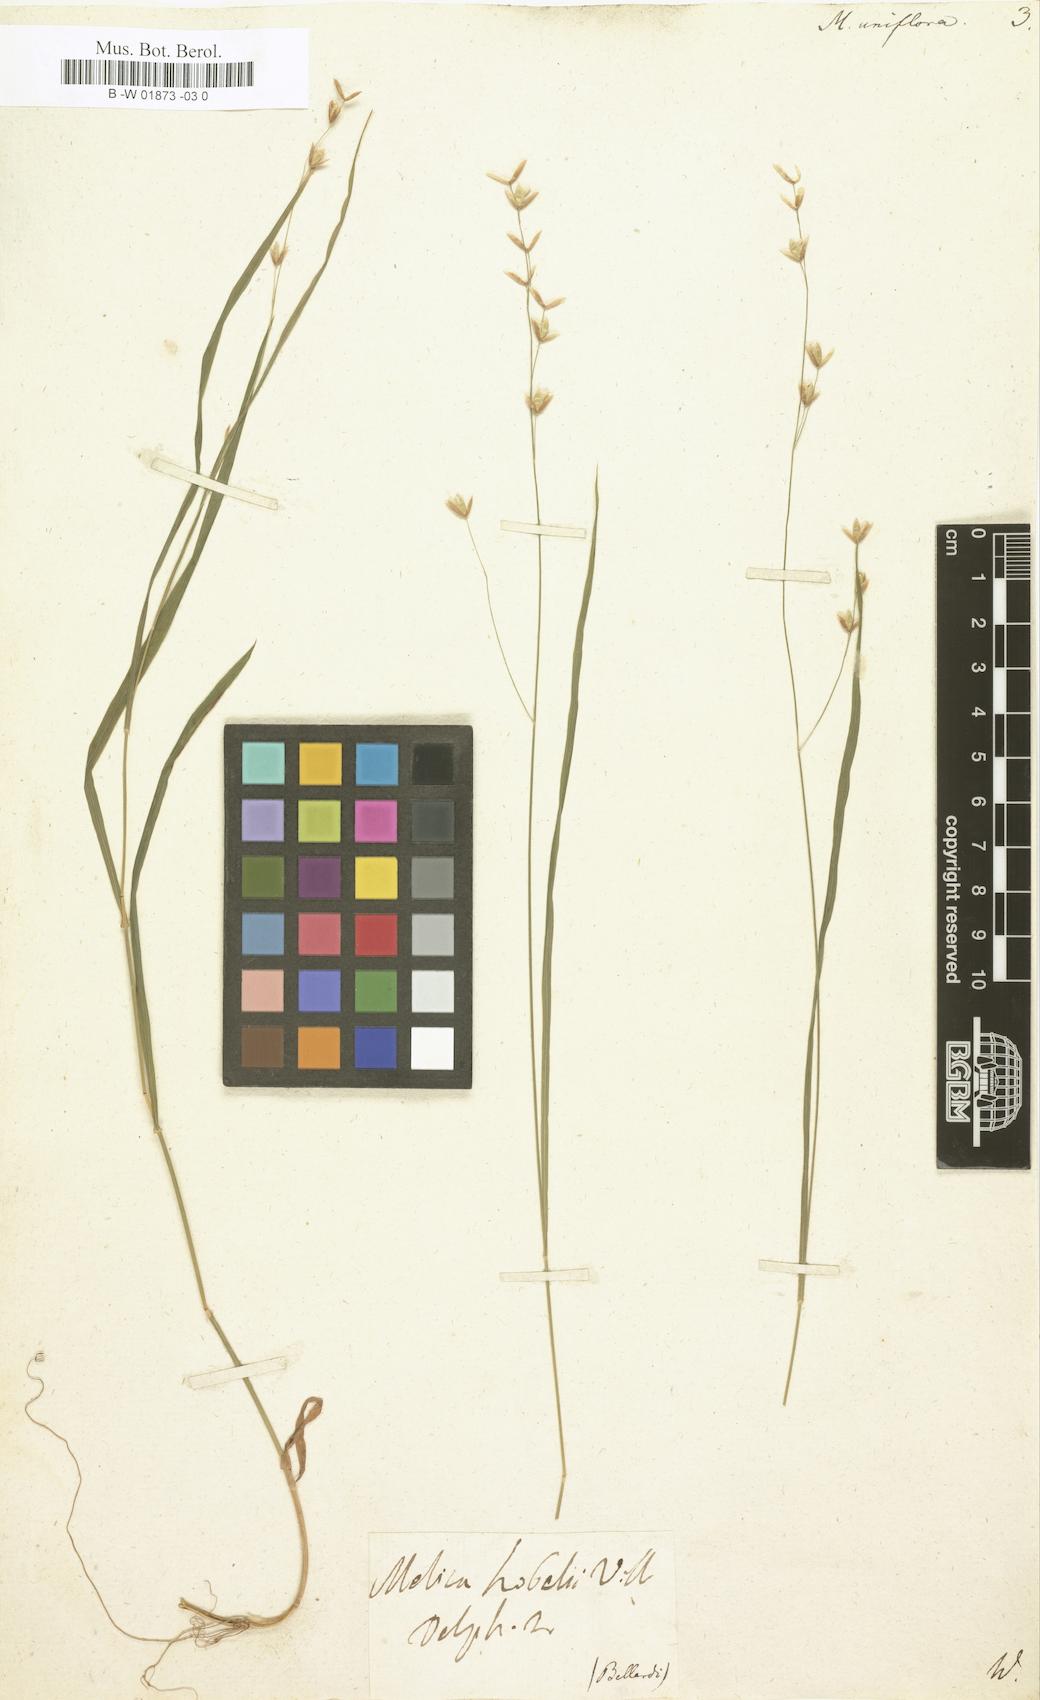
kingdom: Plantae
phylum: Tracheophyta
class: Liliopsida
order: Poales
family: Poaceae
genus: Melica
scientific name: Melica uniflora
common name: Wood melick
